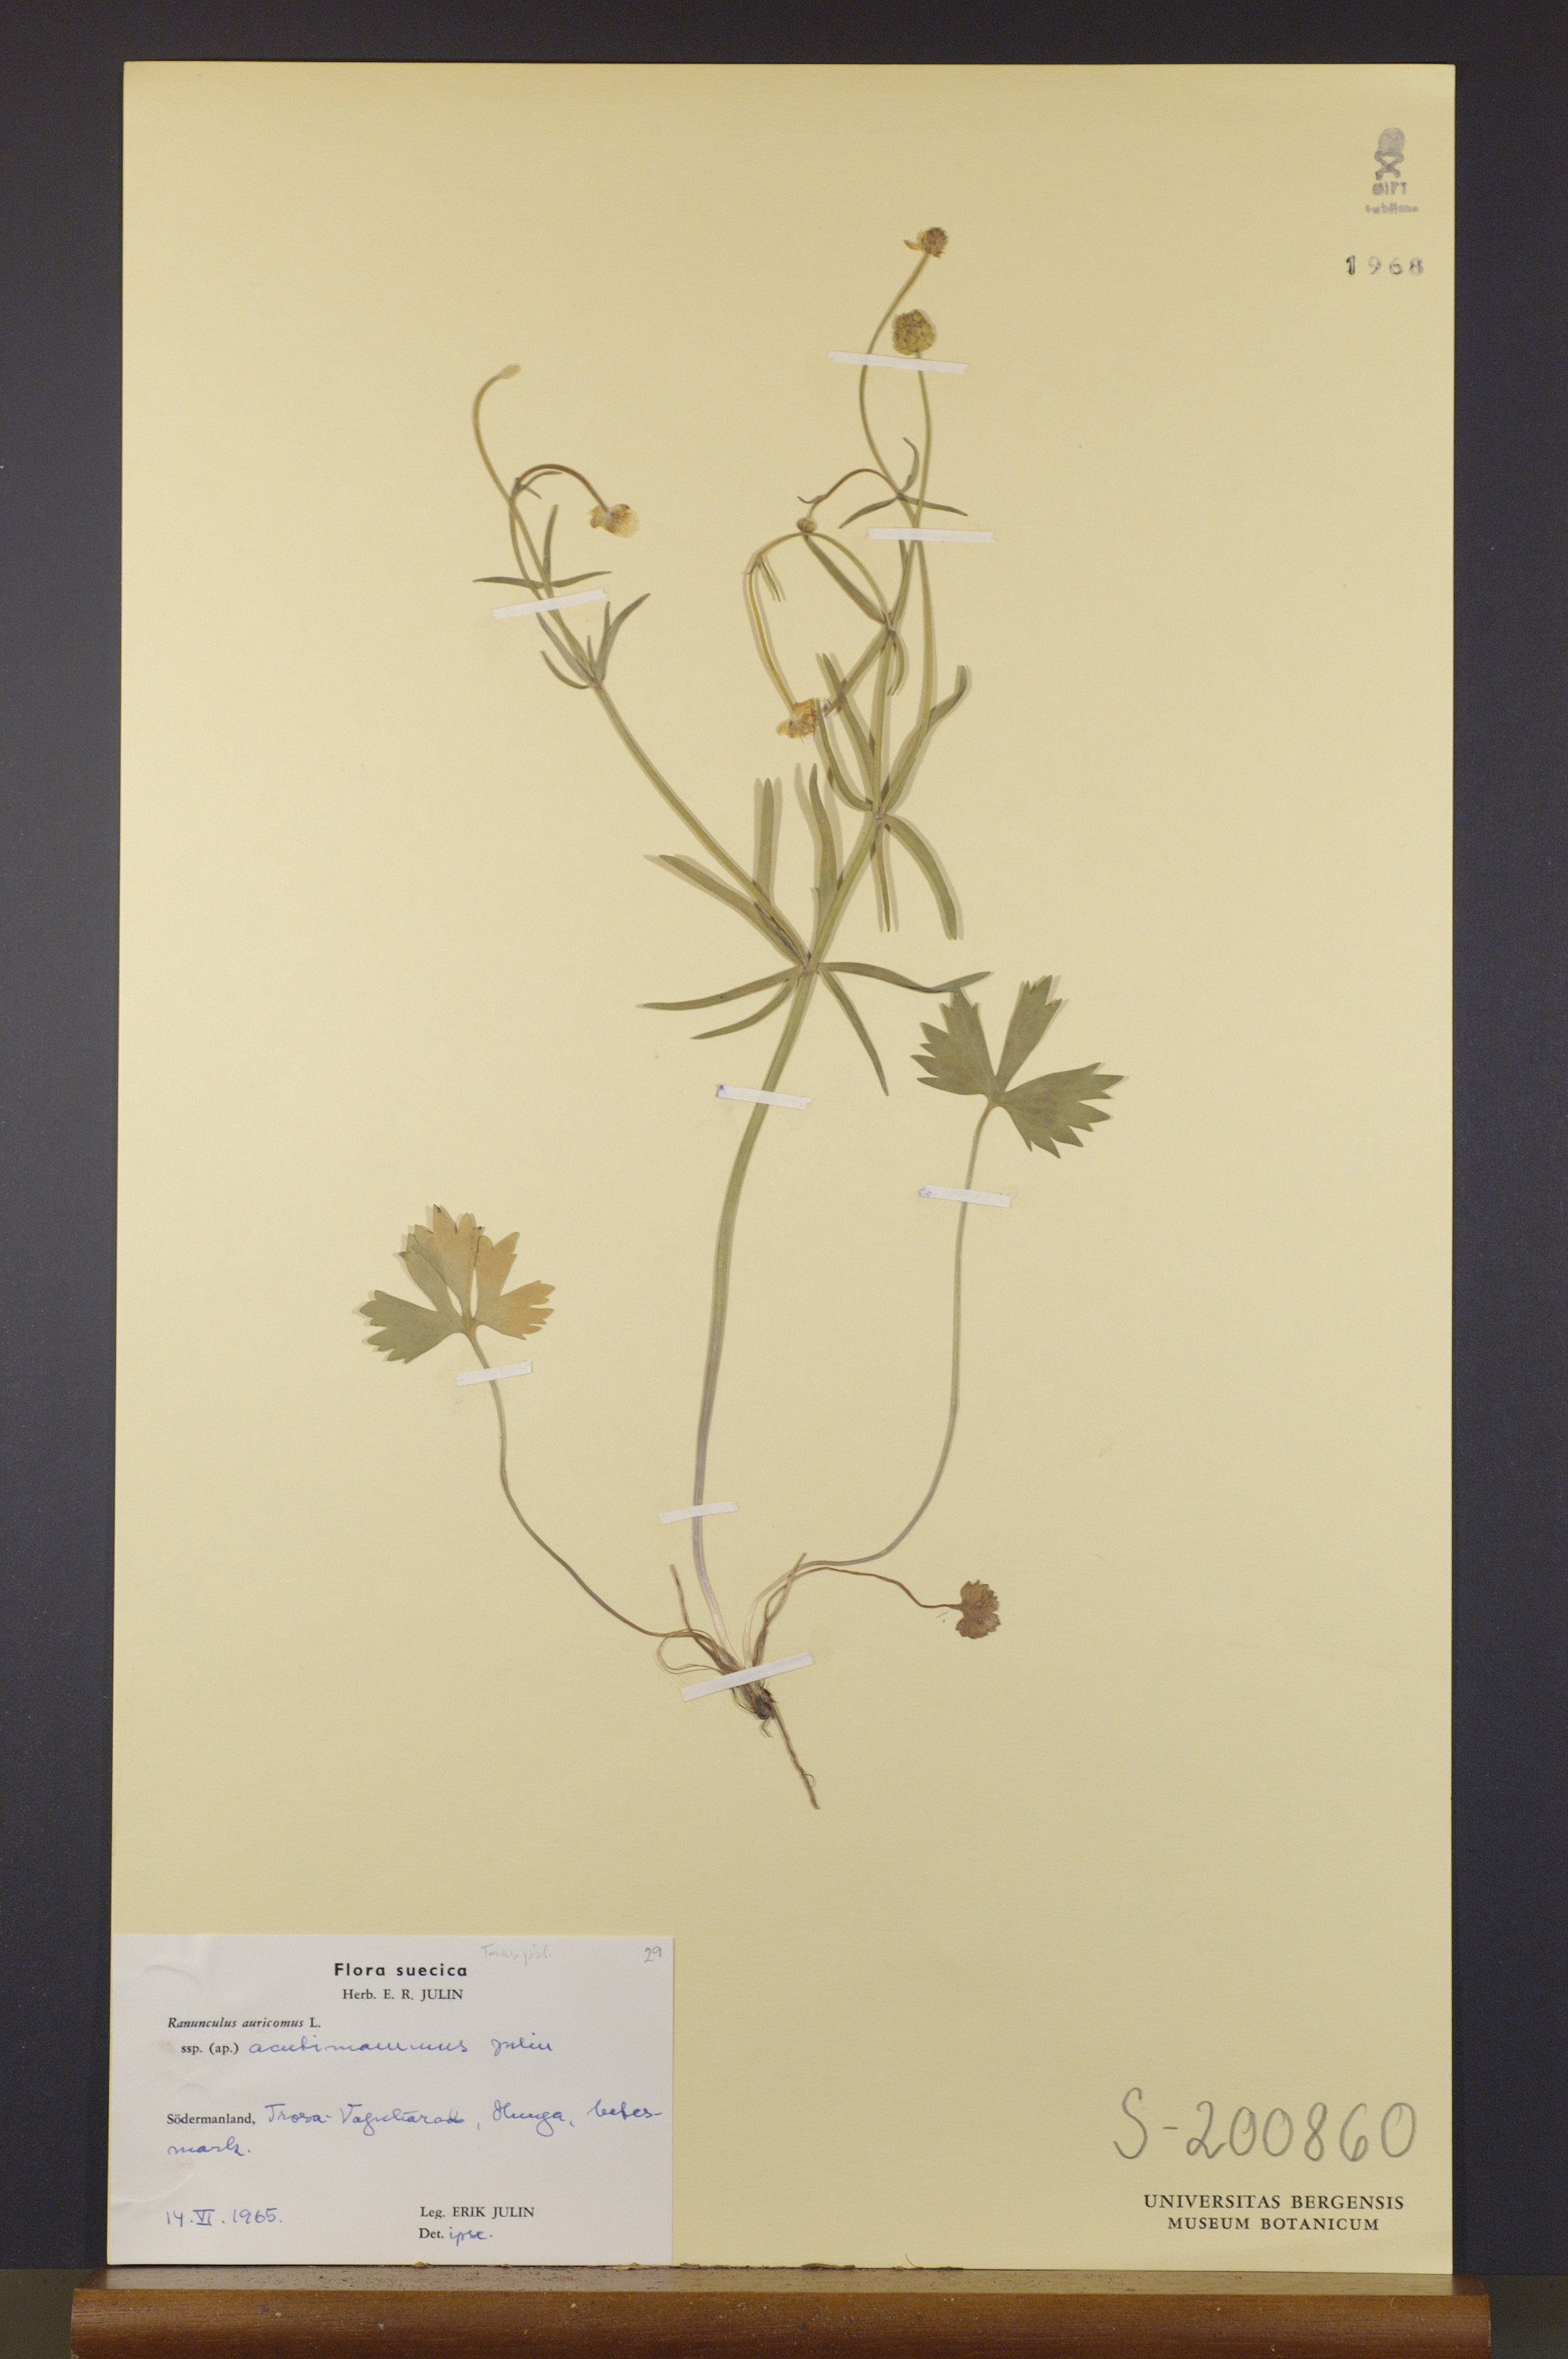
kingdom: Plantae
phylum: Tracheophyta
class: Magnoliopsida
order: Ranunculales
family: Ranunculaceae
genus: Ranunculus
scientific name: Ranunculus acutimammus
